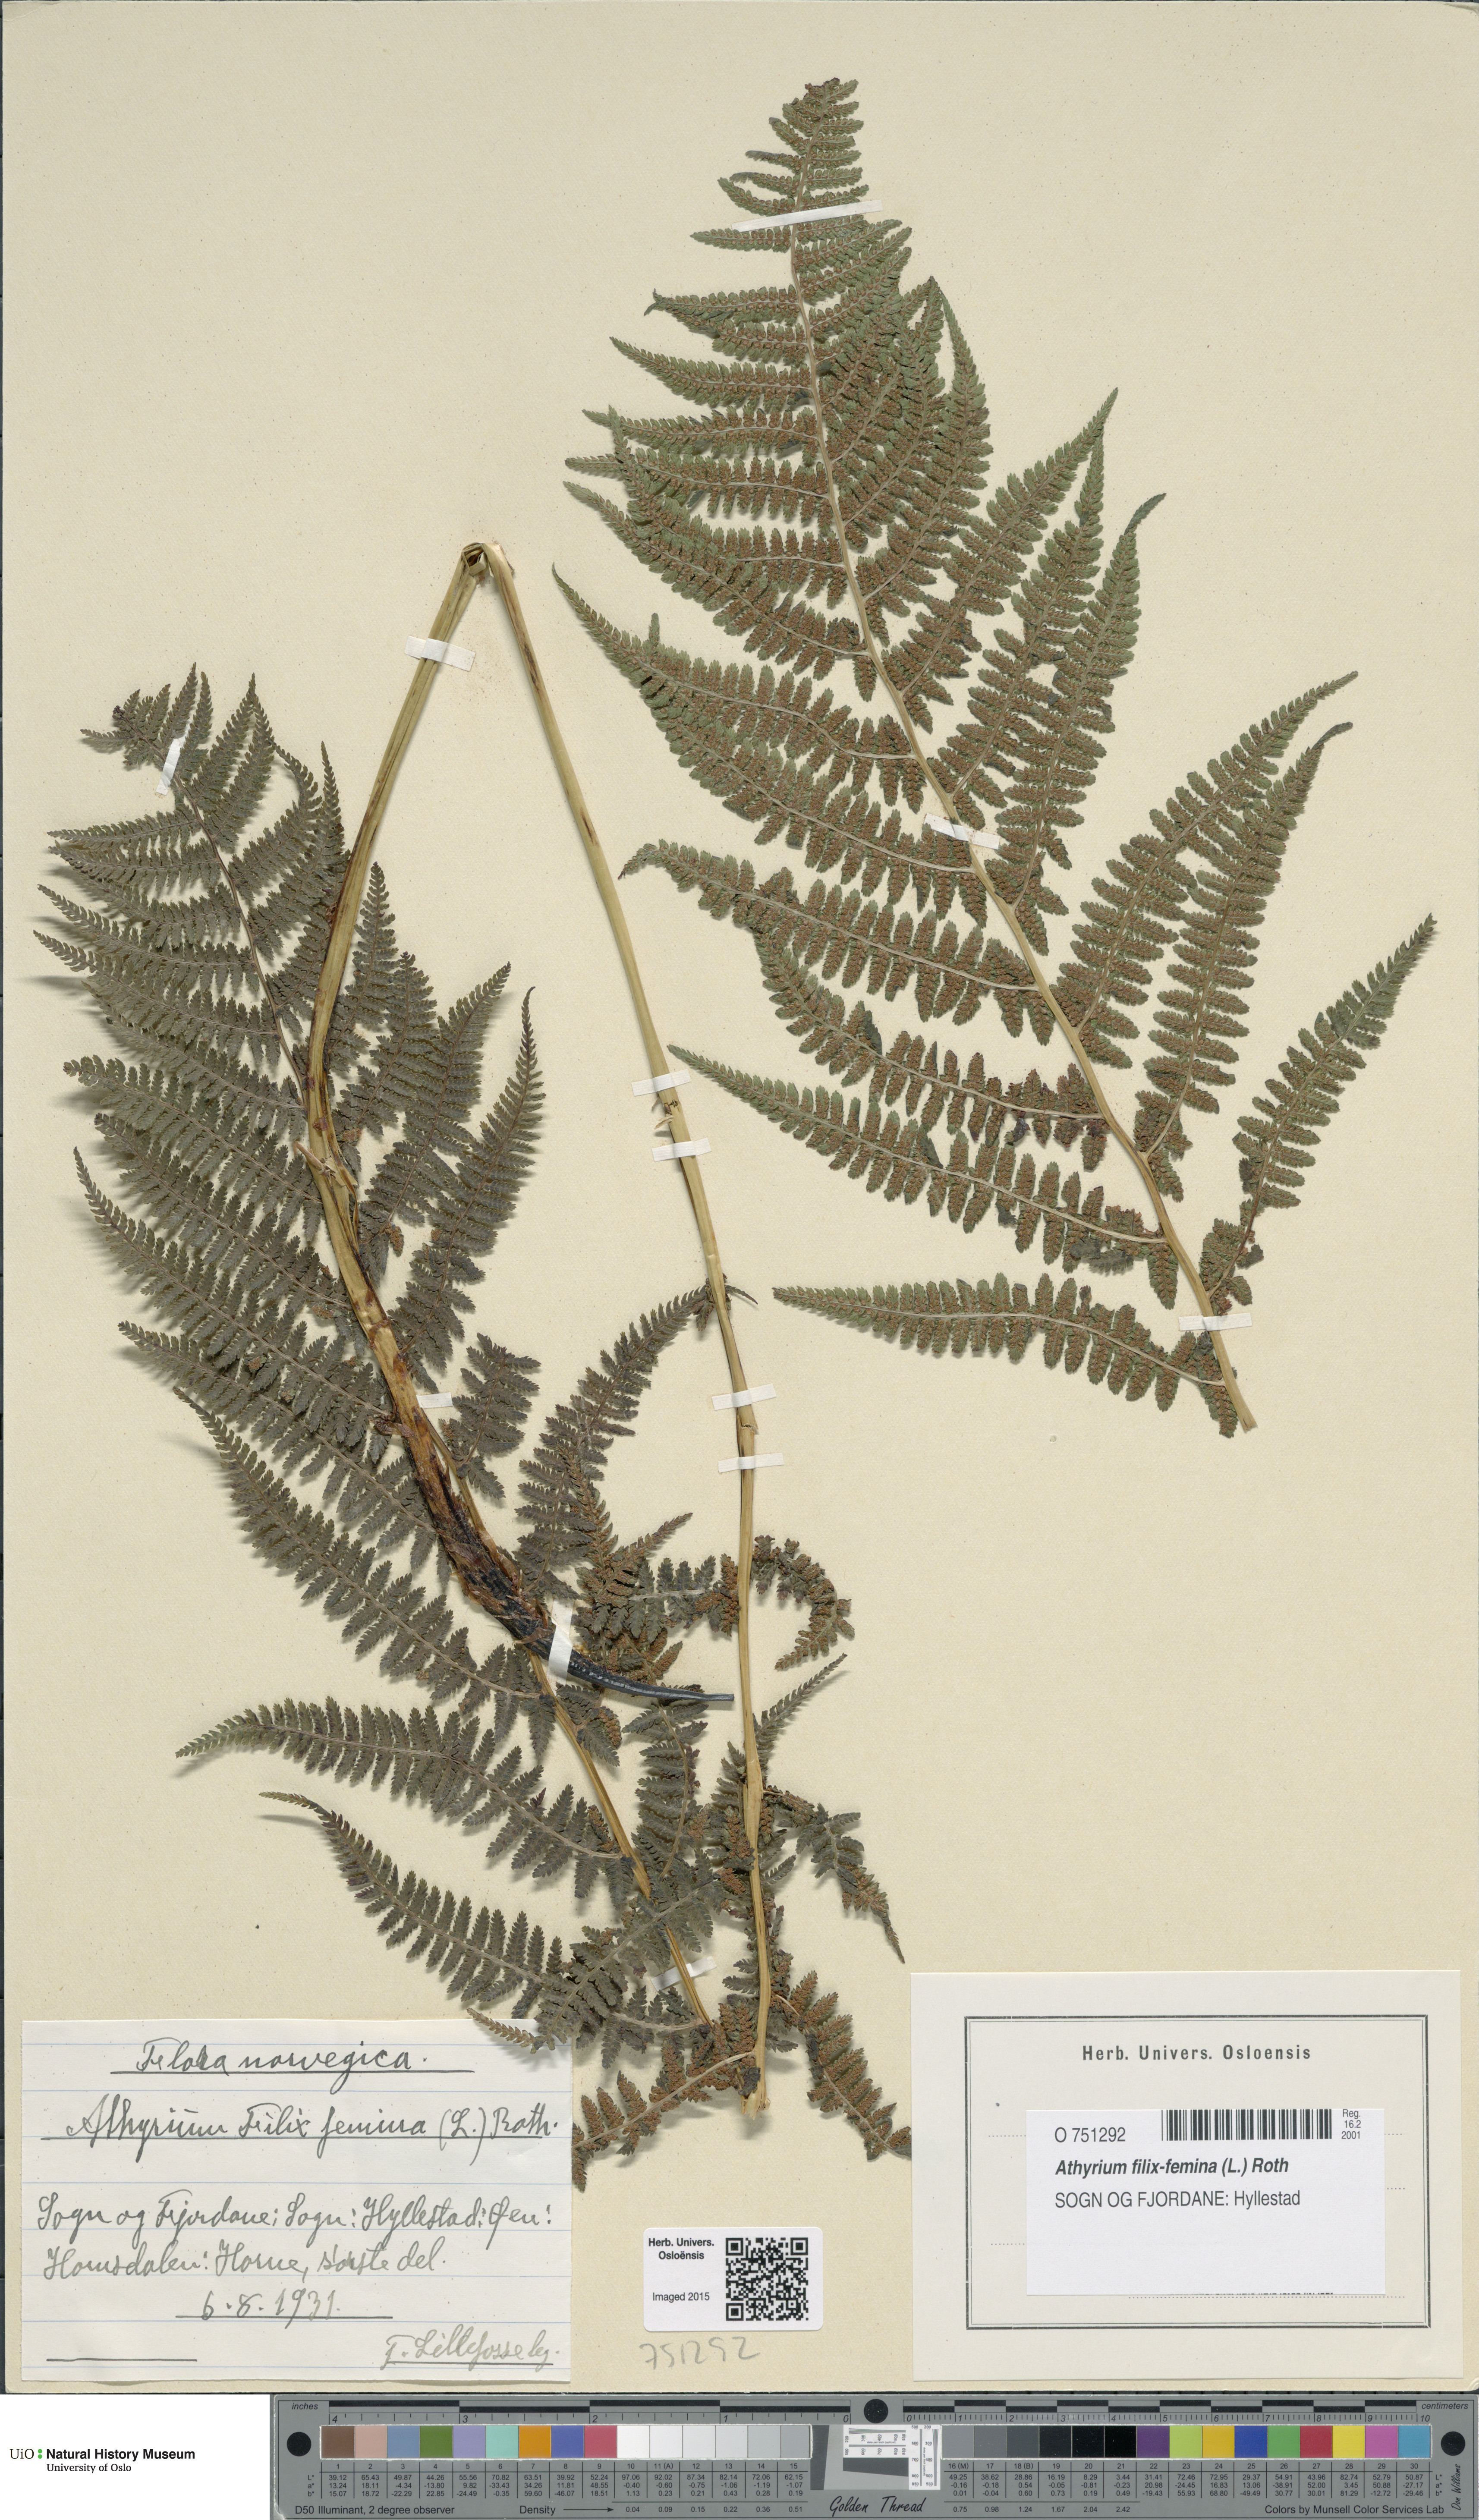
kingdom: Plantae
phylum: Tracheophyta
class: Polypodiopsida
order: Polypodiales
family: Athyriaceae
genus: Athyrium
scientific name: Athyrium filix-femina
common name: Lady fern
